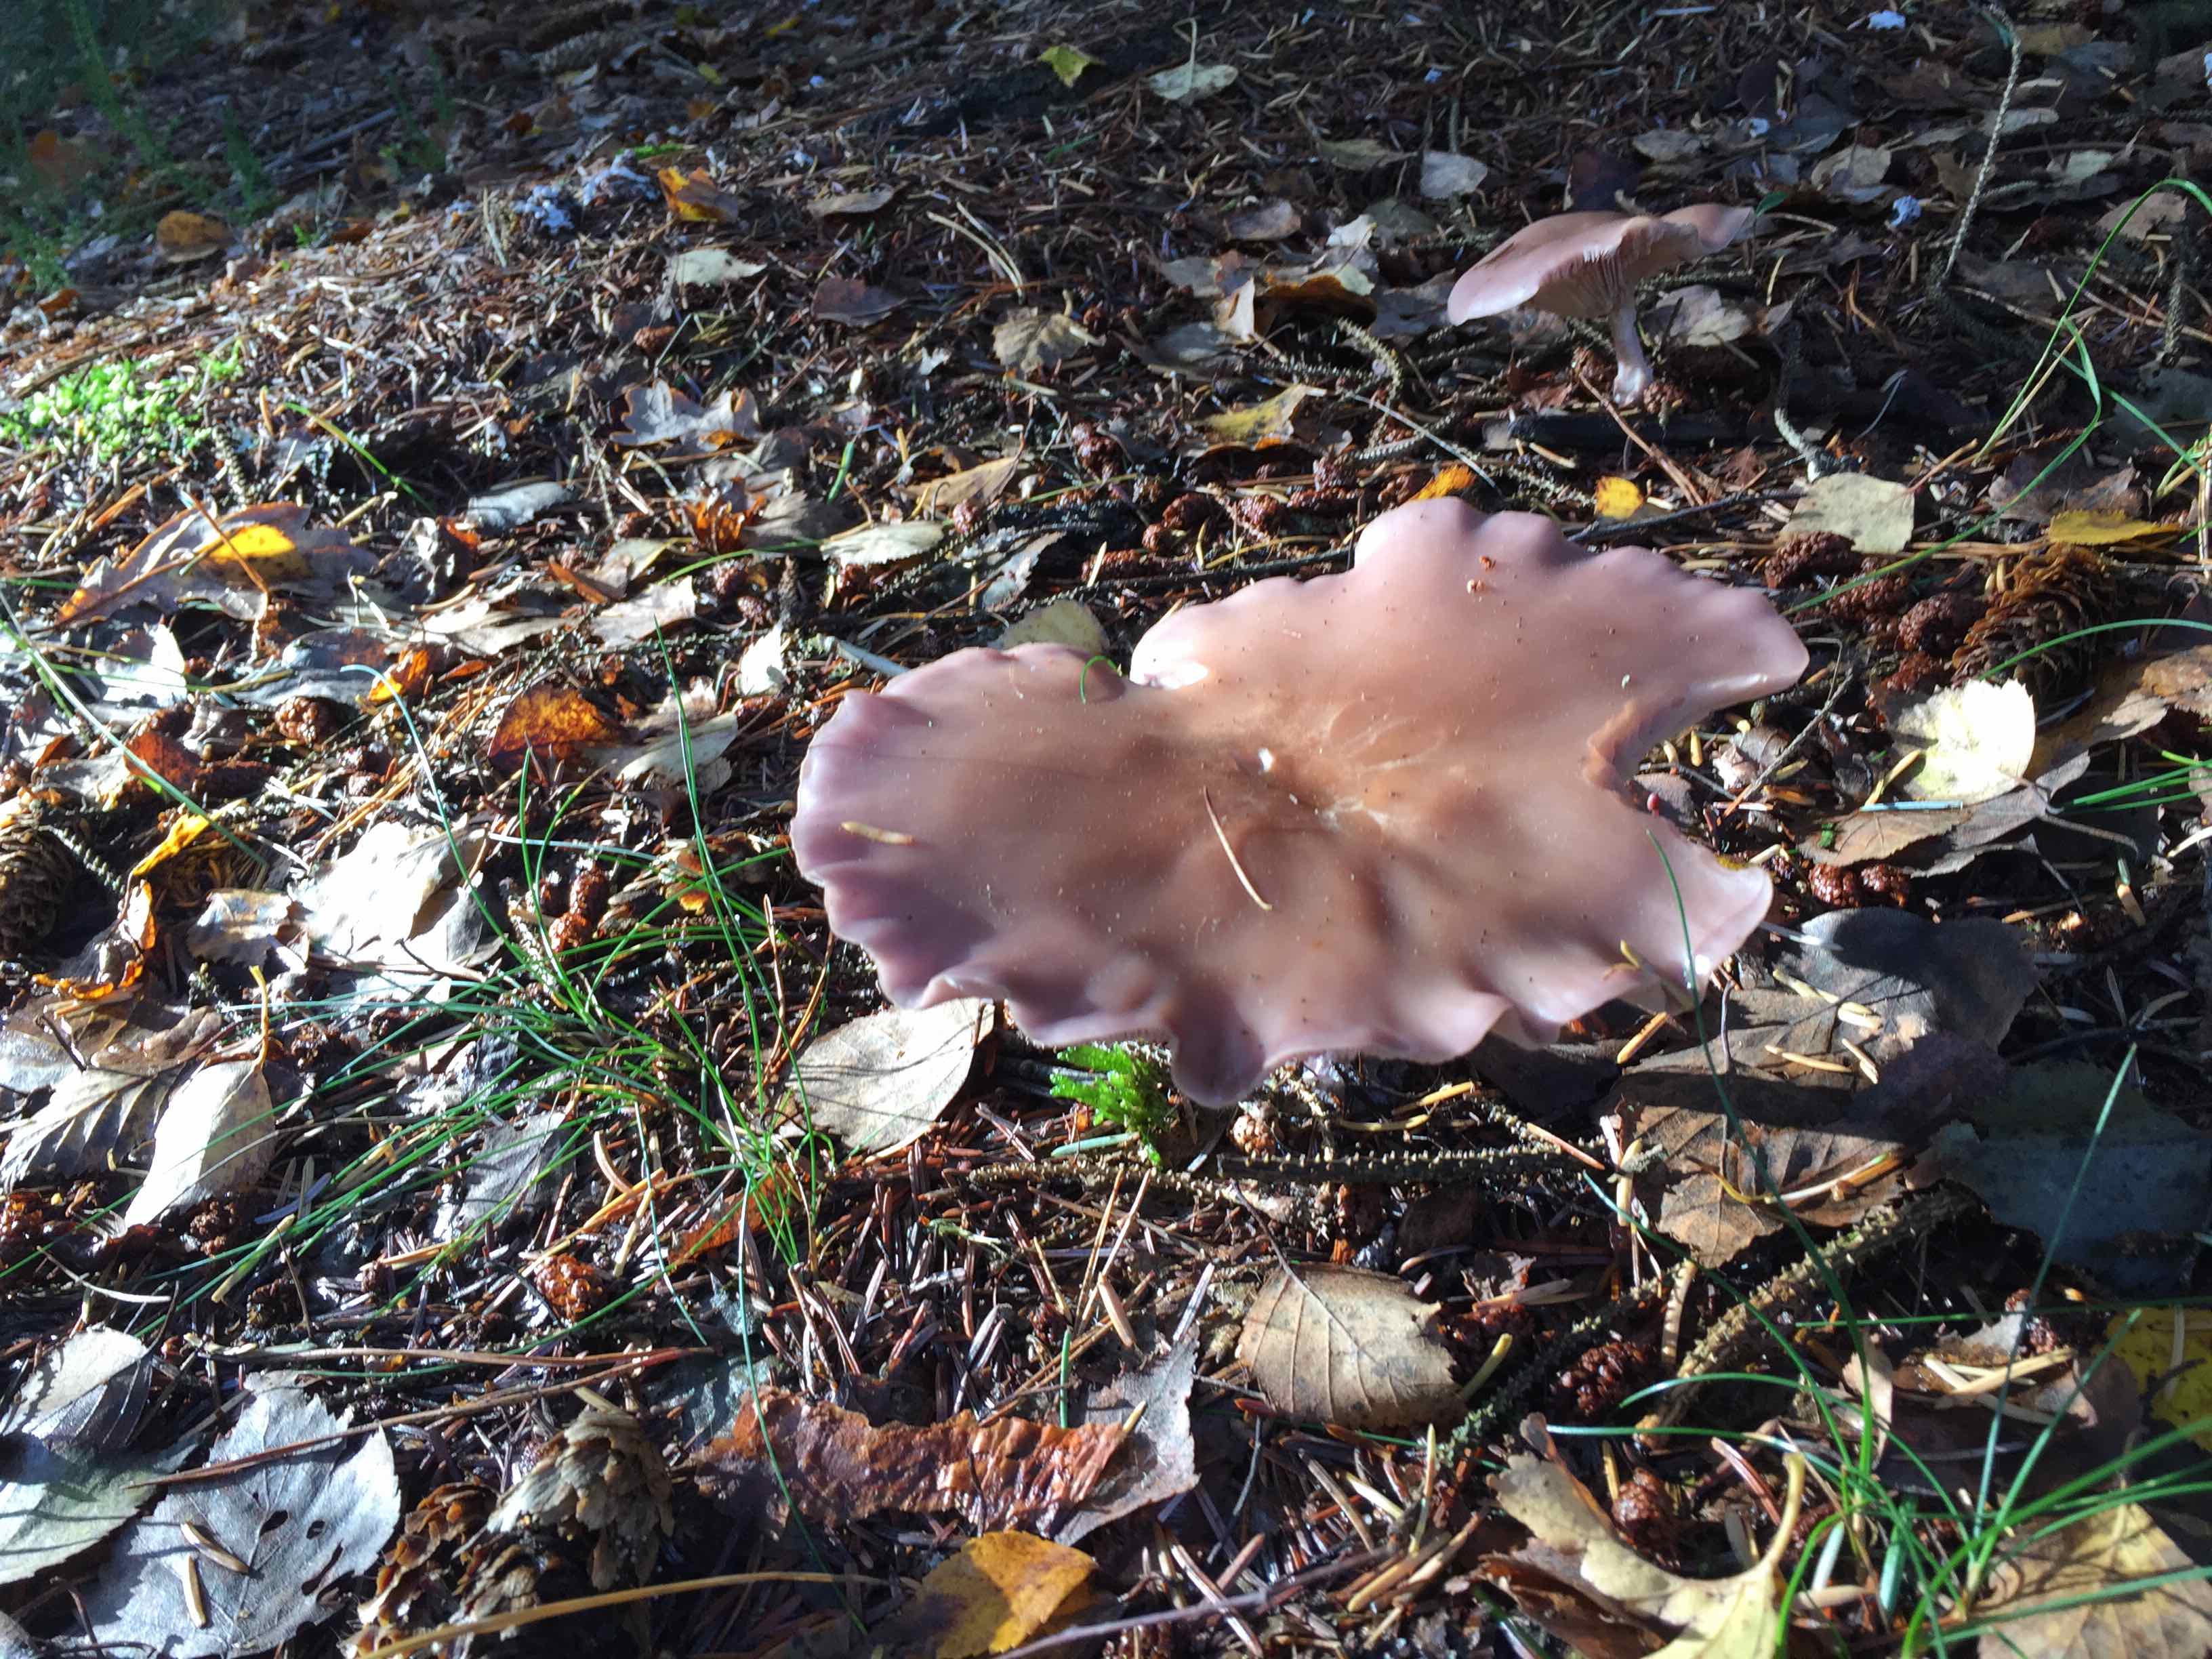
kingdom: Fungi
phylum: Basidiomycota
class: Agaricomycetes
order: Agaricales
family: Tricholomataceae
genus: Lepista
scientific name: Lepista nuda
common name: violet hekseringshat
